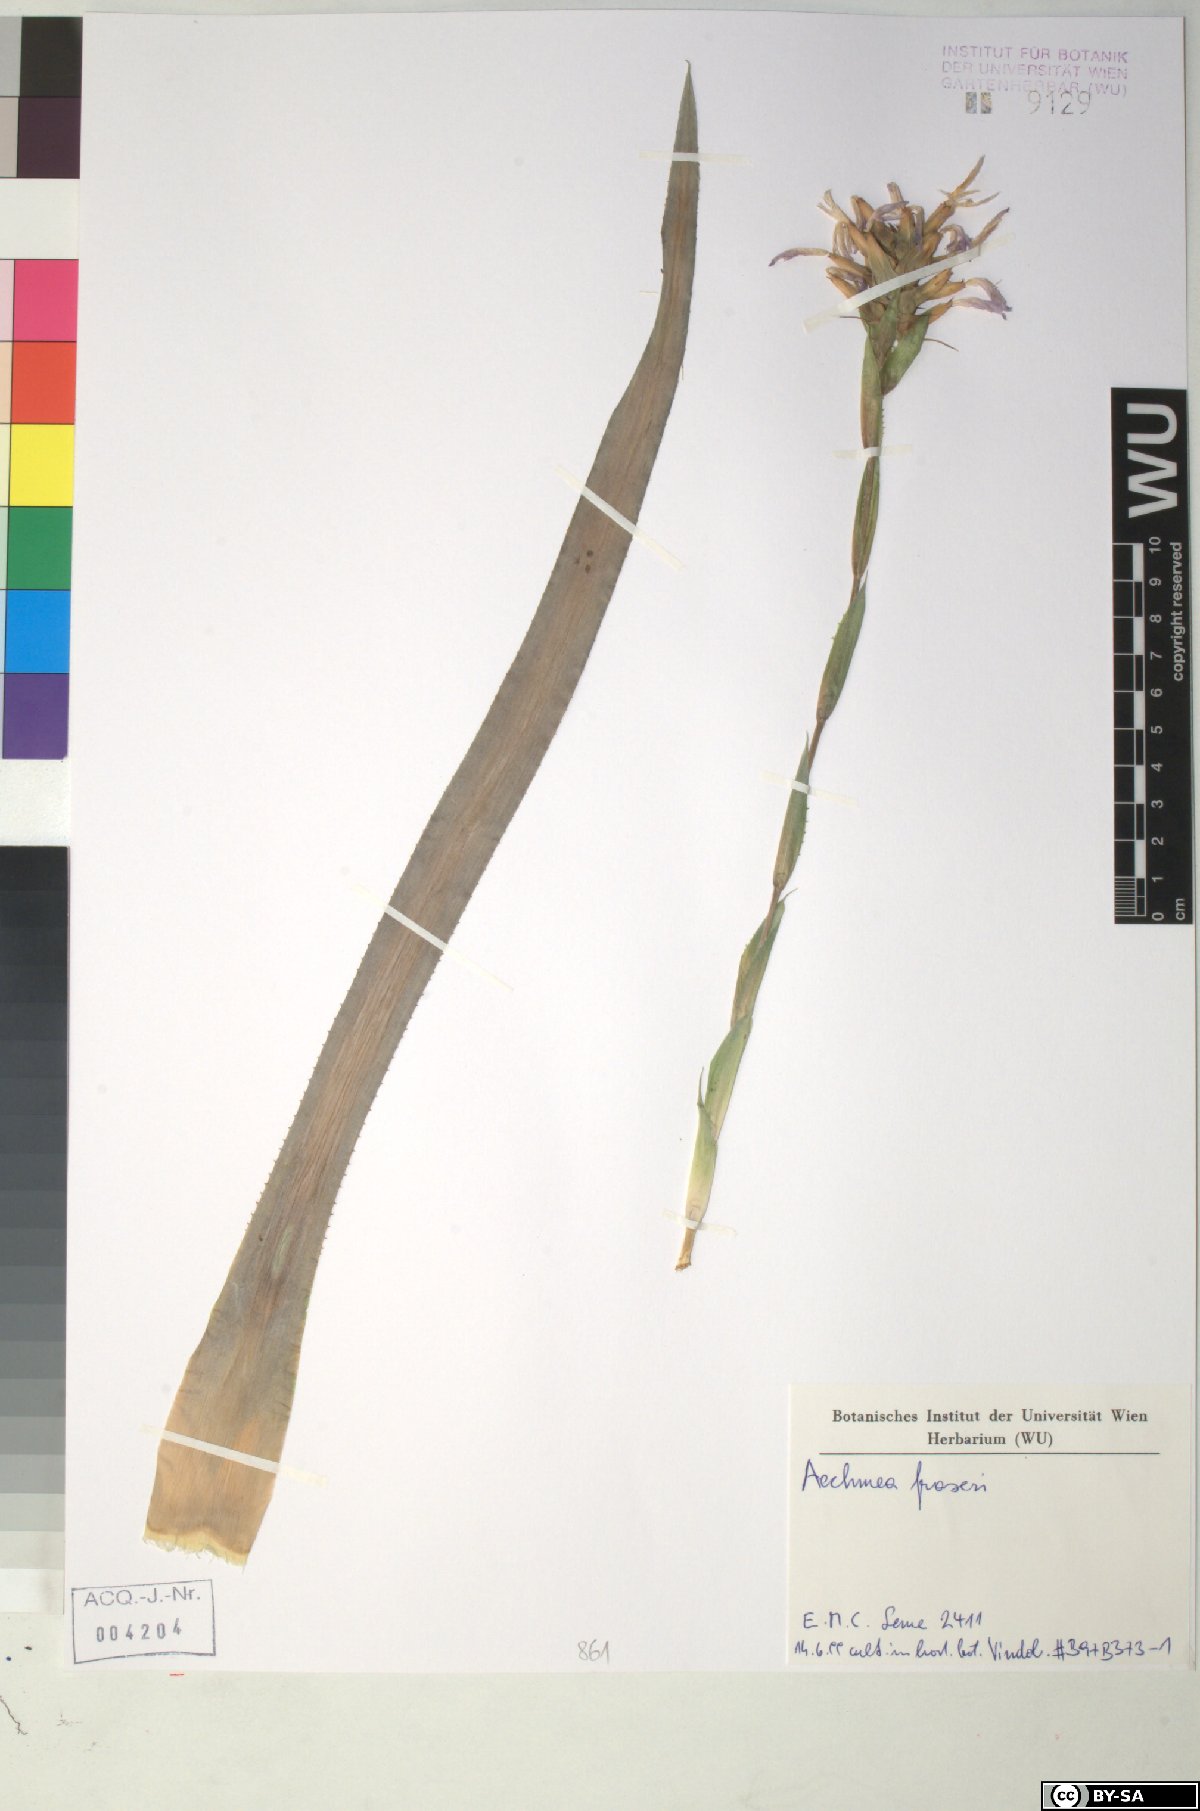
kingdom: Plantae
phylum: Tracheophyta
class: Liliopsida
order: Poales
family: Bromeliaceae
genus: Aechmea
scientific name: Aechmea
